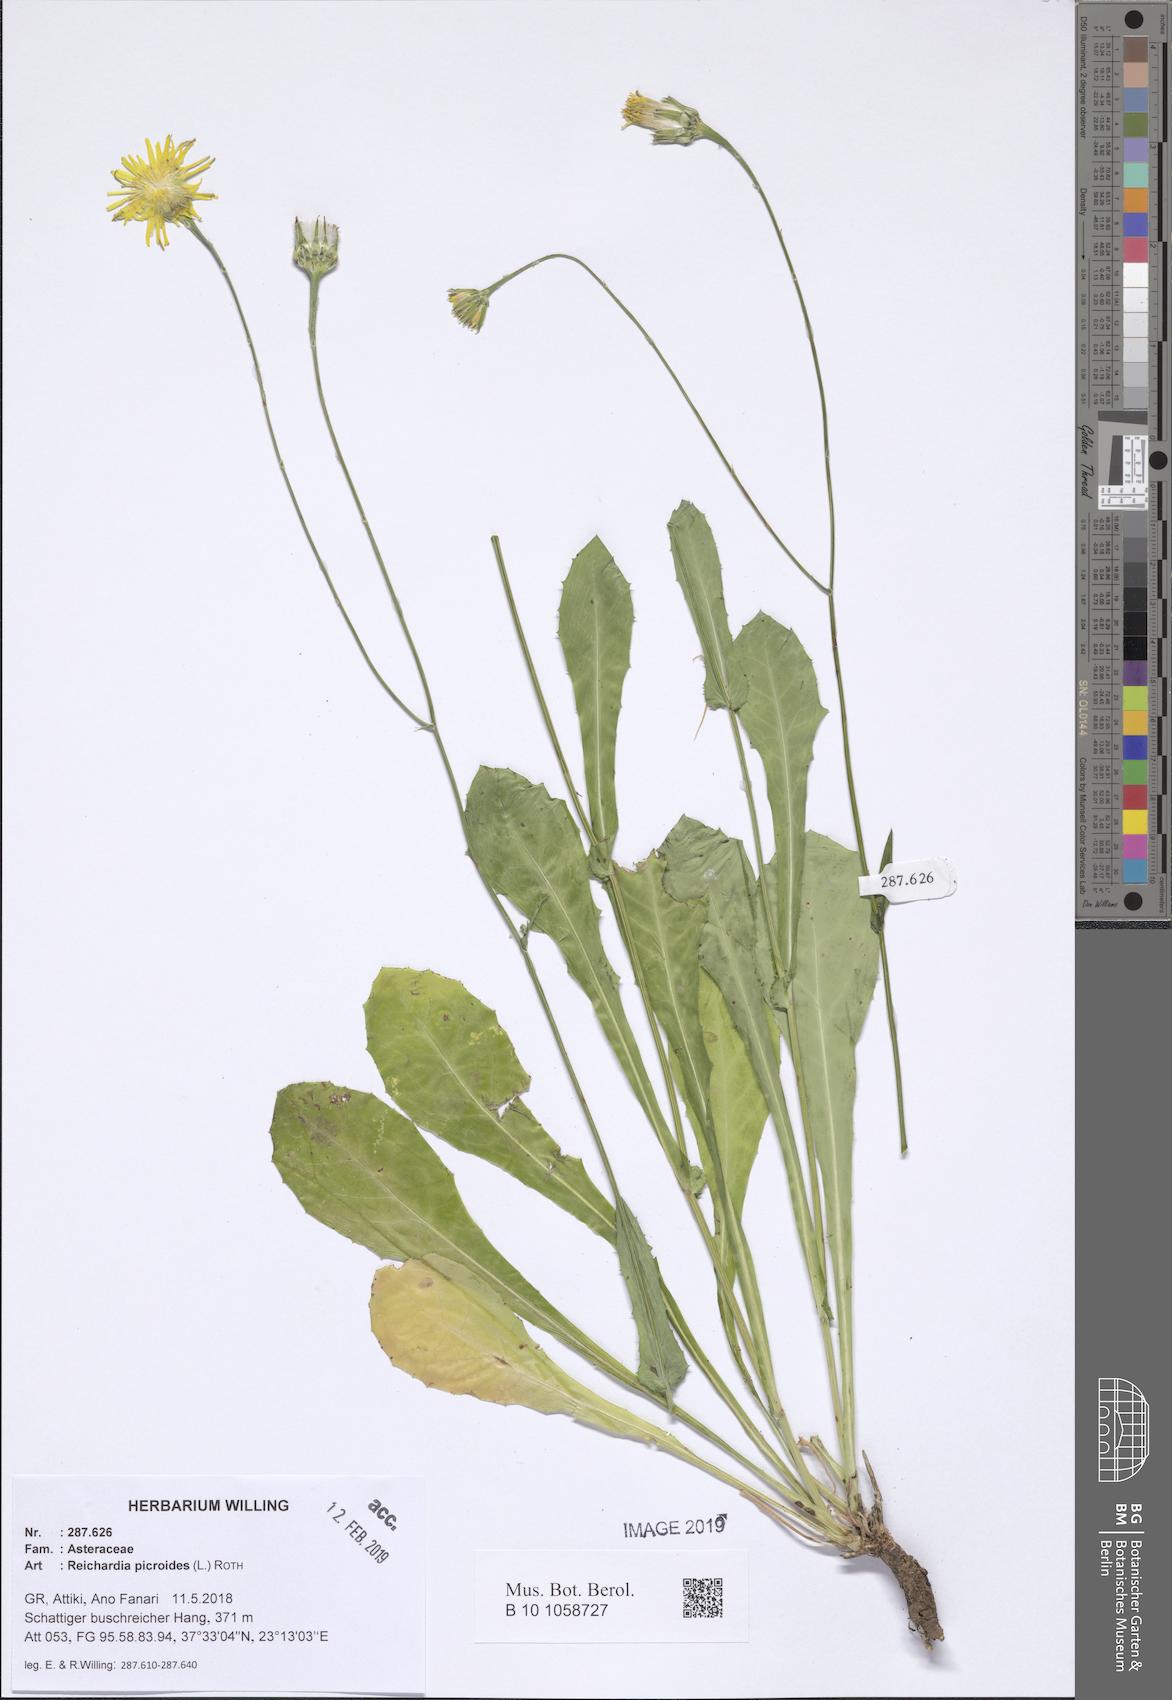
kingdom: Plantae
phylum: Tracheophyta
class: Magnoliopsida
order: Asterales
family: Asteraceae
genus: Reichardia
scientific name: Reichardia picroides
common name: Common brighteyes
